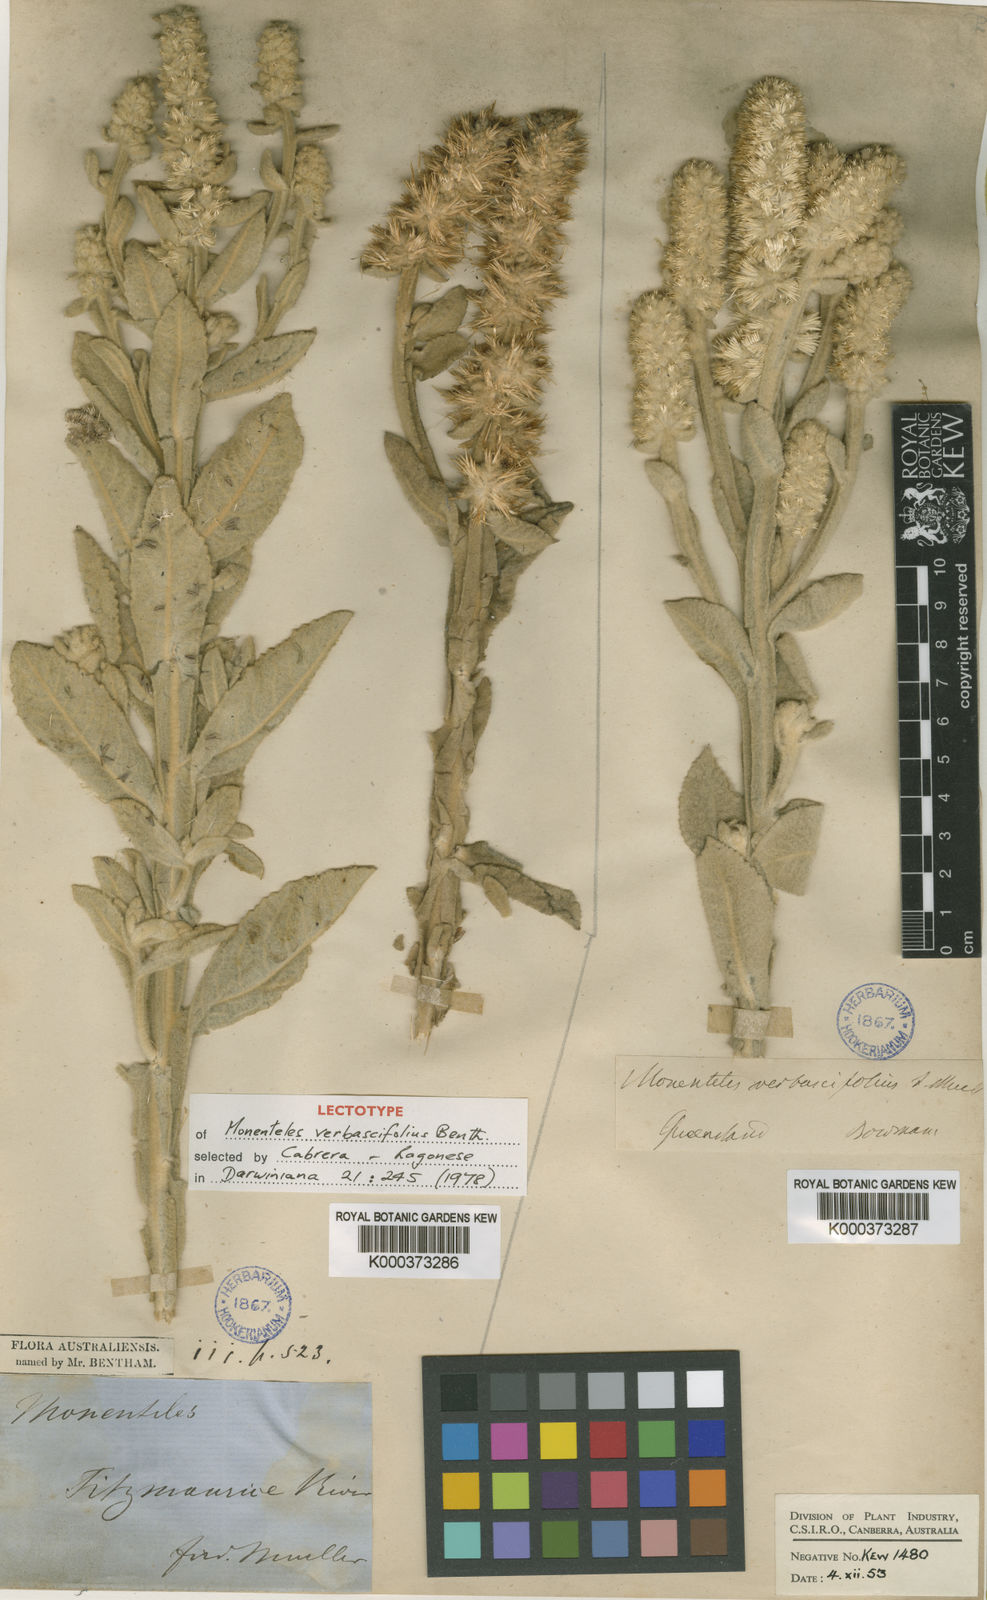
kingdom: Plantae
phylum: Tracheophyta
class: Magnoliopsida
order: Asterales
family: Asteraceae
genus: Pterocaulon
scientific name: Pterocaulon verbascifolium
